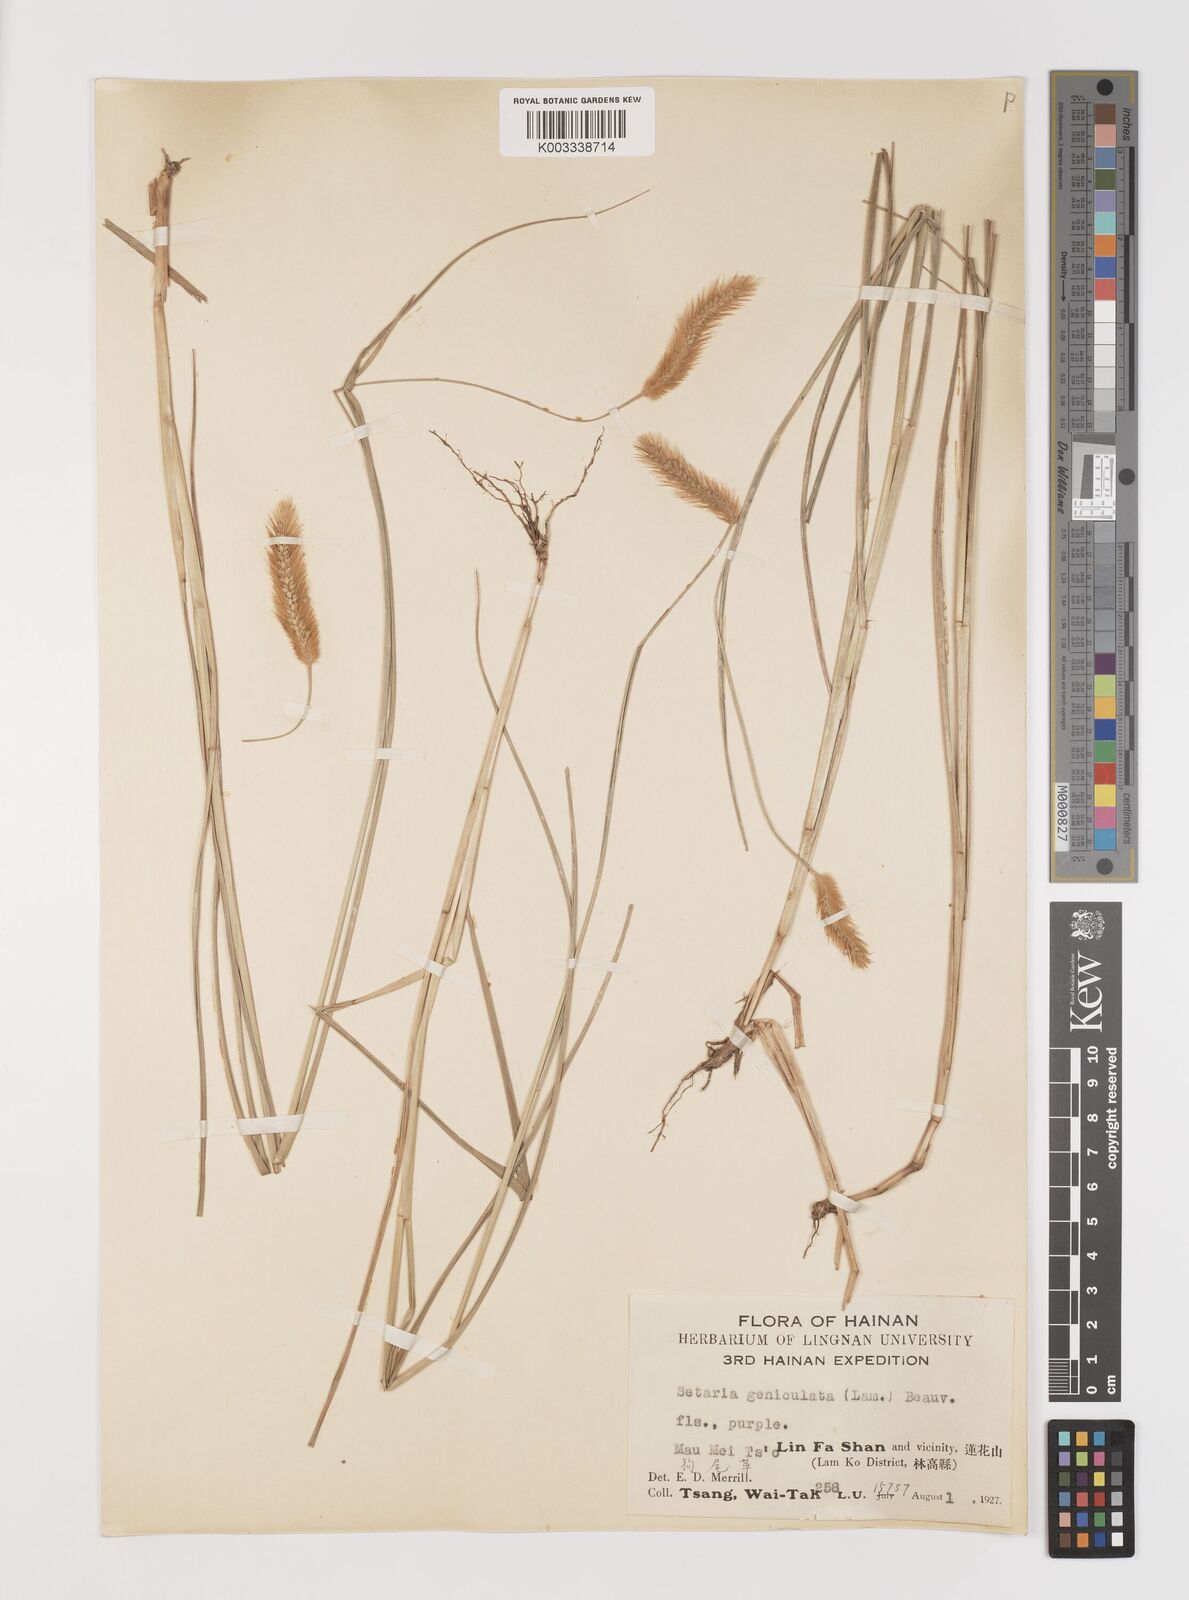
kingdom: Plantae
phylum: Tracheophyta
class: Liliopsida
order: Poales
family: Poaceae
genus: Setaria
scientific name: Setaria parviflora
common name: Knotroot bristle-grass
